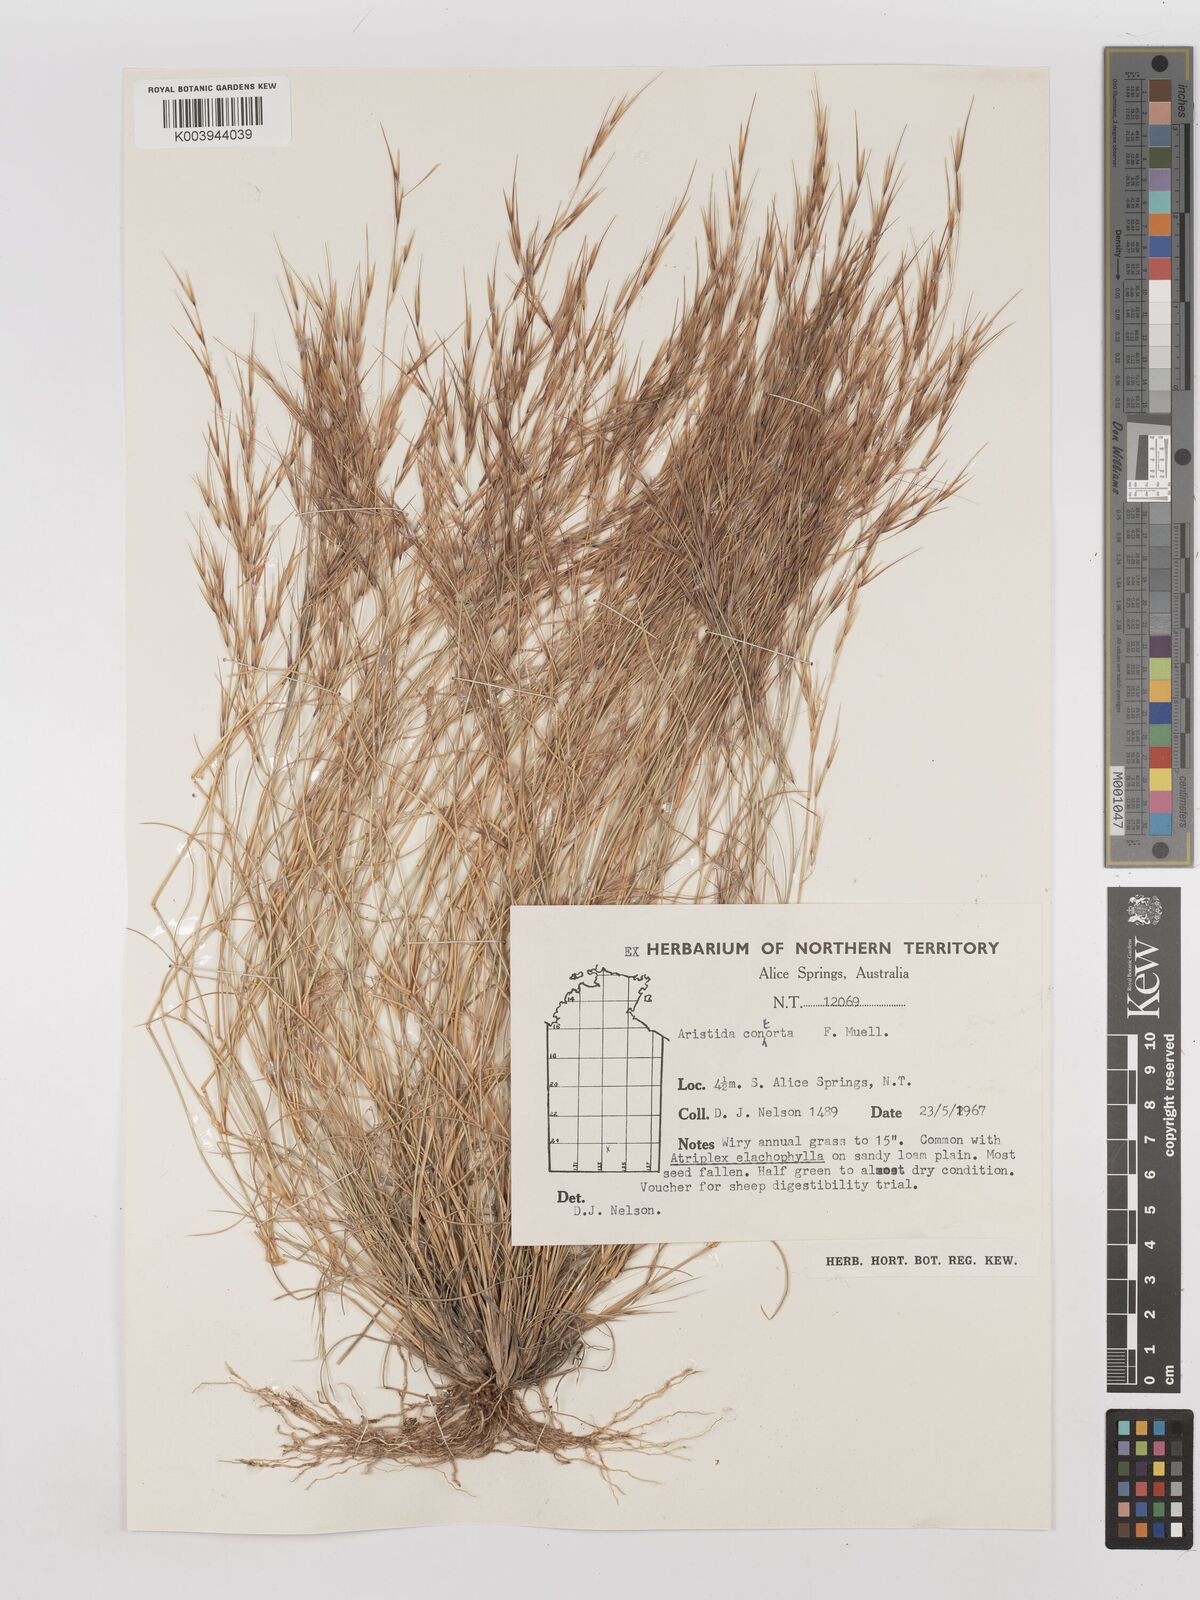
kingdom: Plantae
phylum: Tracheophyta
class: Liliopsida
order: Poales
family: Poaceae
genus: Aristida
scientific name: Aristida contorta
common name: Bunch kerosene grass
